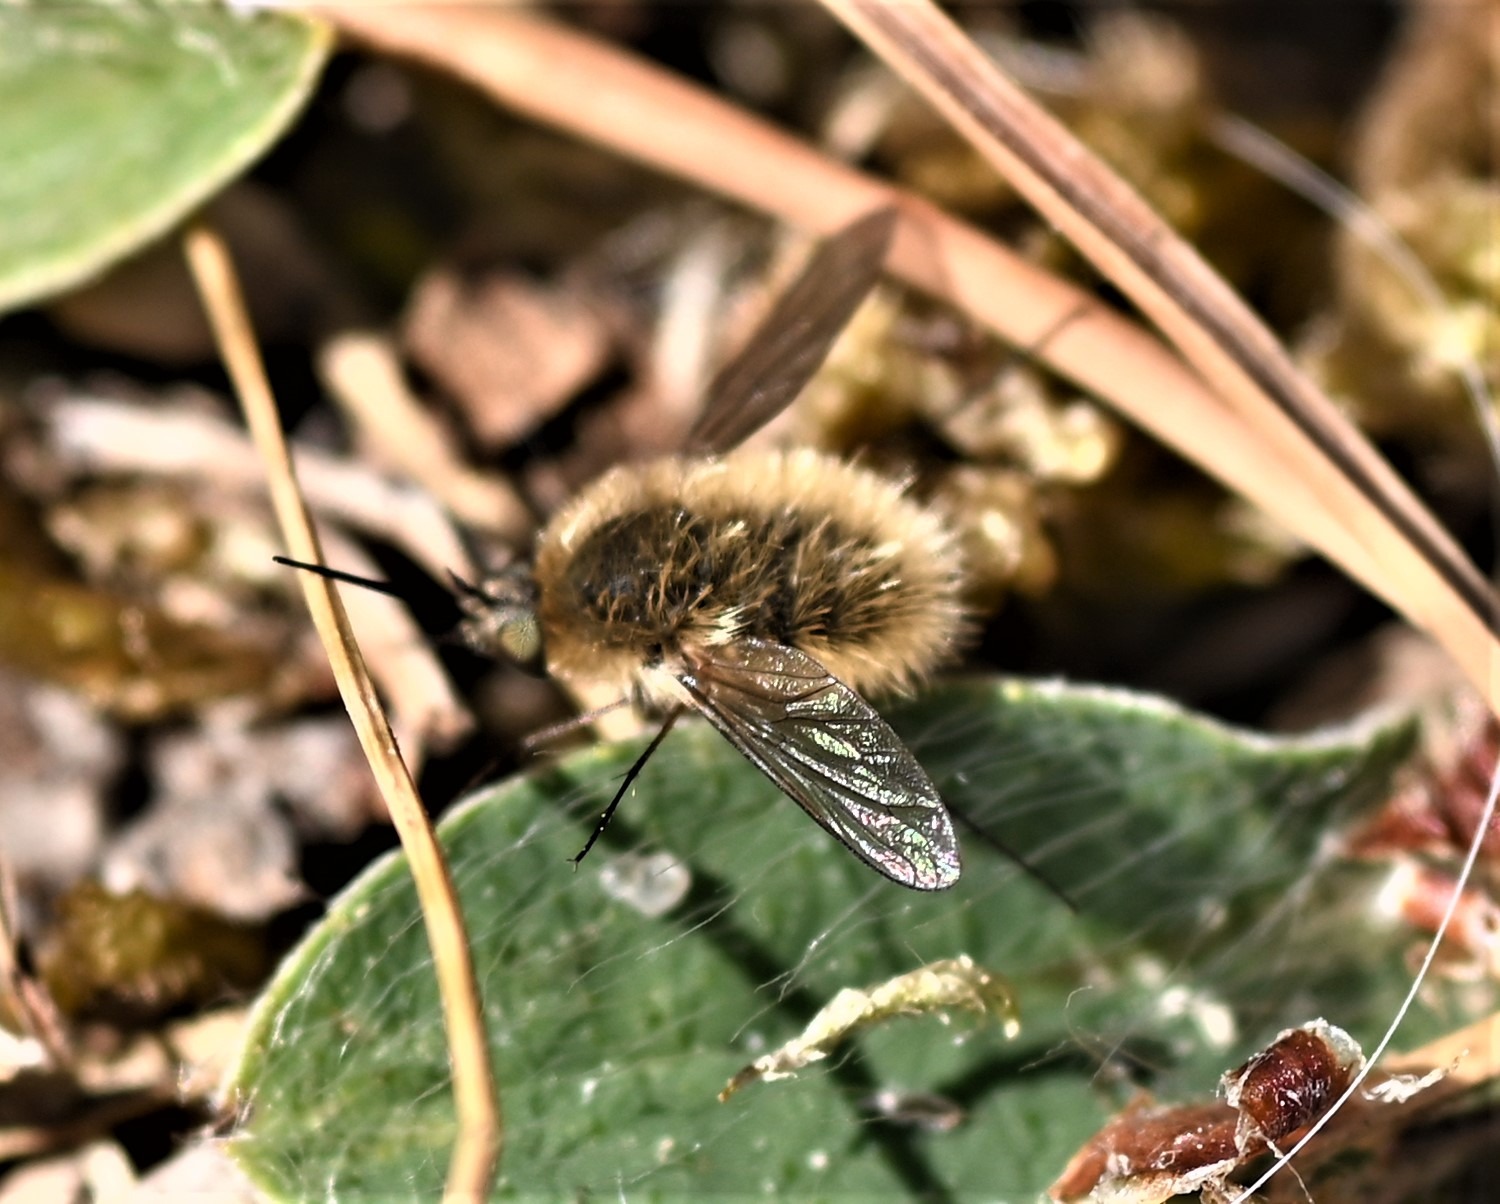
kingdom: Animalia
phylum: Arthropoda
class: Insecta
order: Diptera
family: Bombyliidae
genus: Systoechus
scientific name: Systoechus ctenopterus
